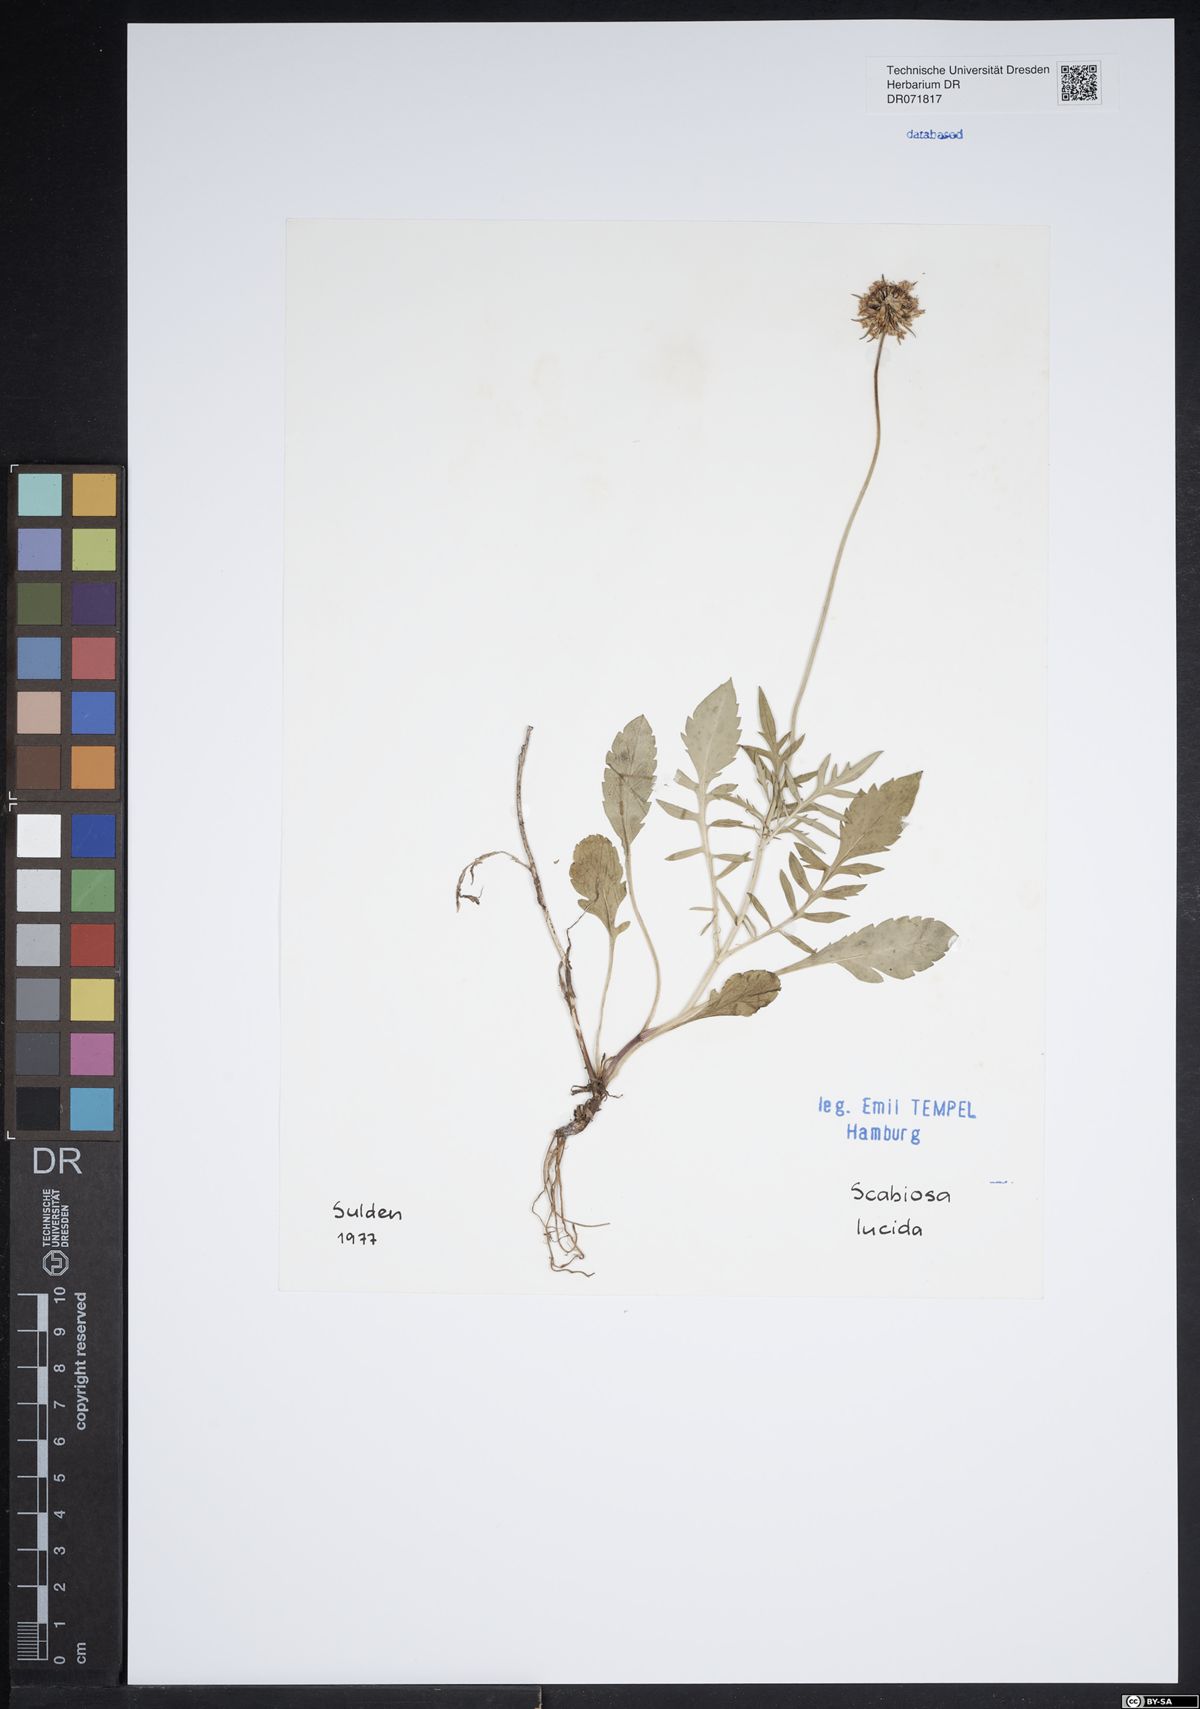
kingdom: Plantae
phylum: Tracheophyta
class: Magnoliopsida
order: Dipsacales
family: Caprifoliaceae
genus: Scabiosa
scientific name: Scabiosa lucida
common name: Shining scabious
